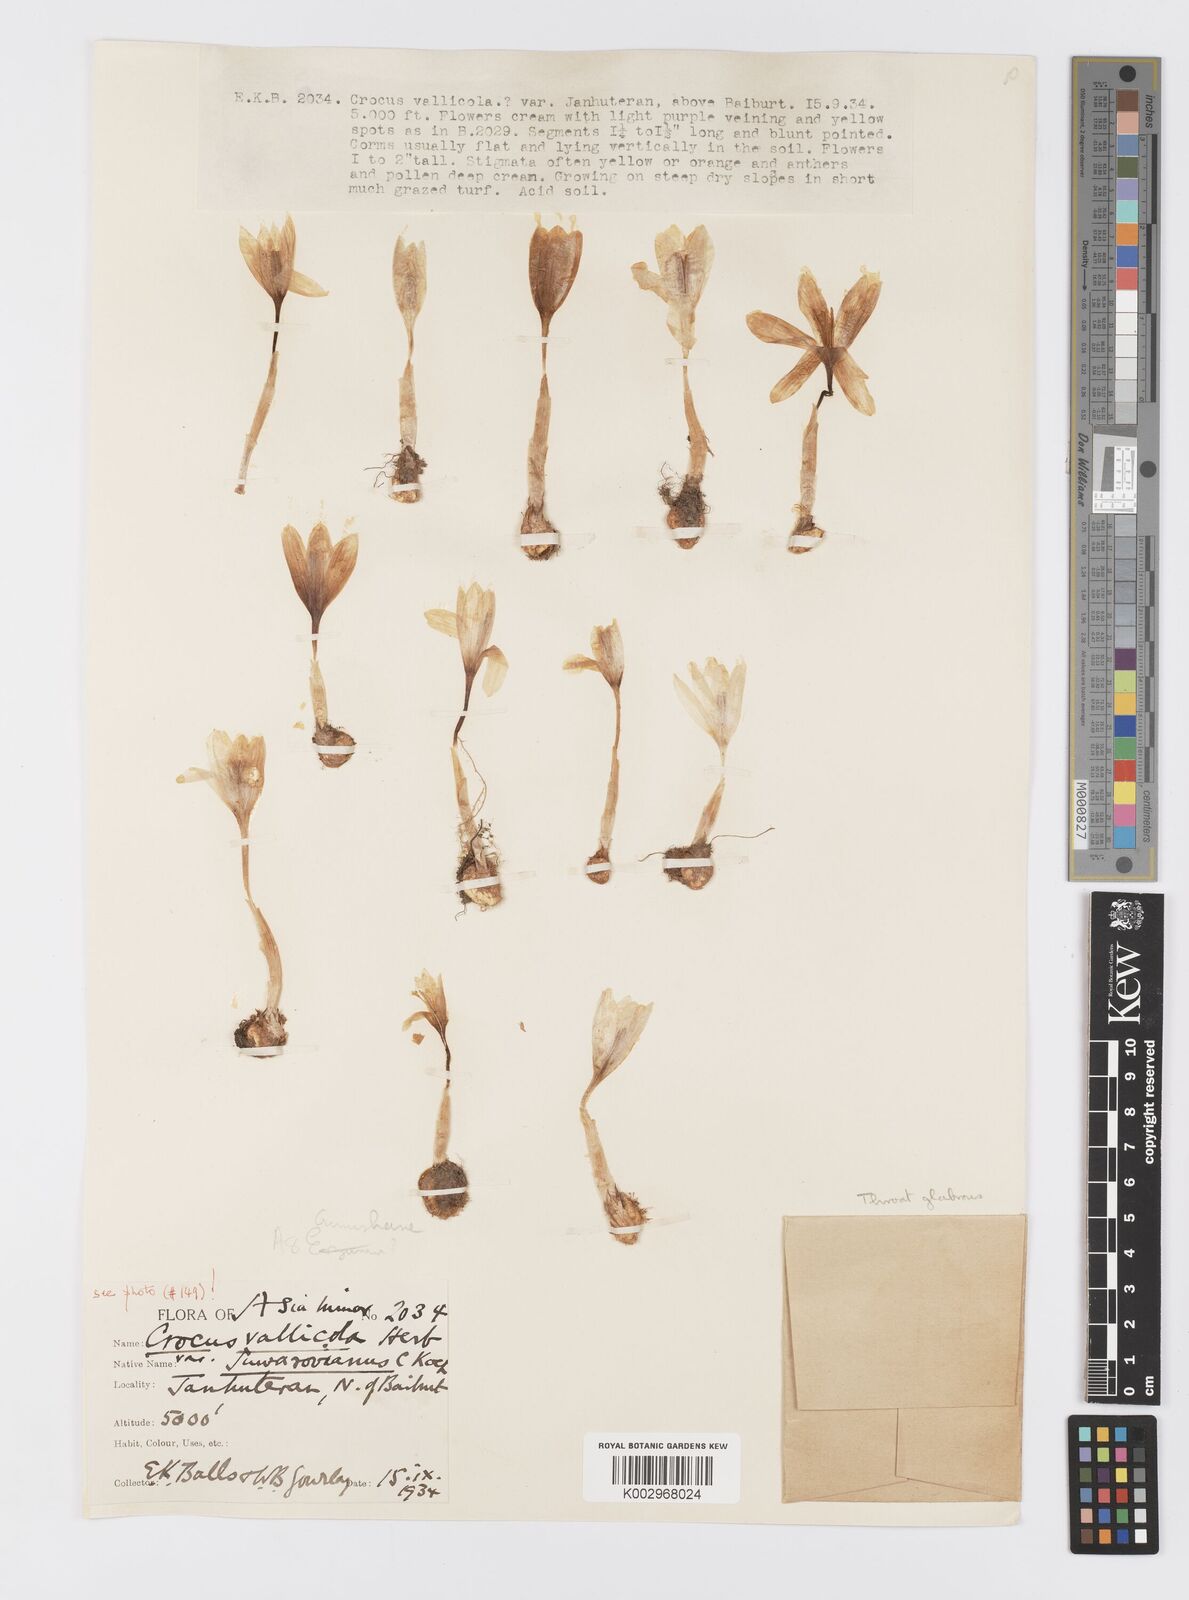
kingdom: Plantae
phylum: Tracheophyta
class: Liliopsida
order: Asparagales
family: Iridaceae
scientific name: Iridaceae
